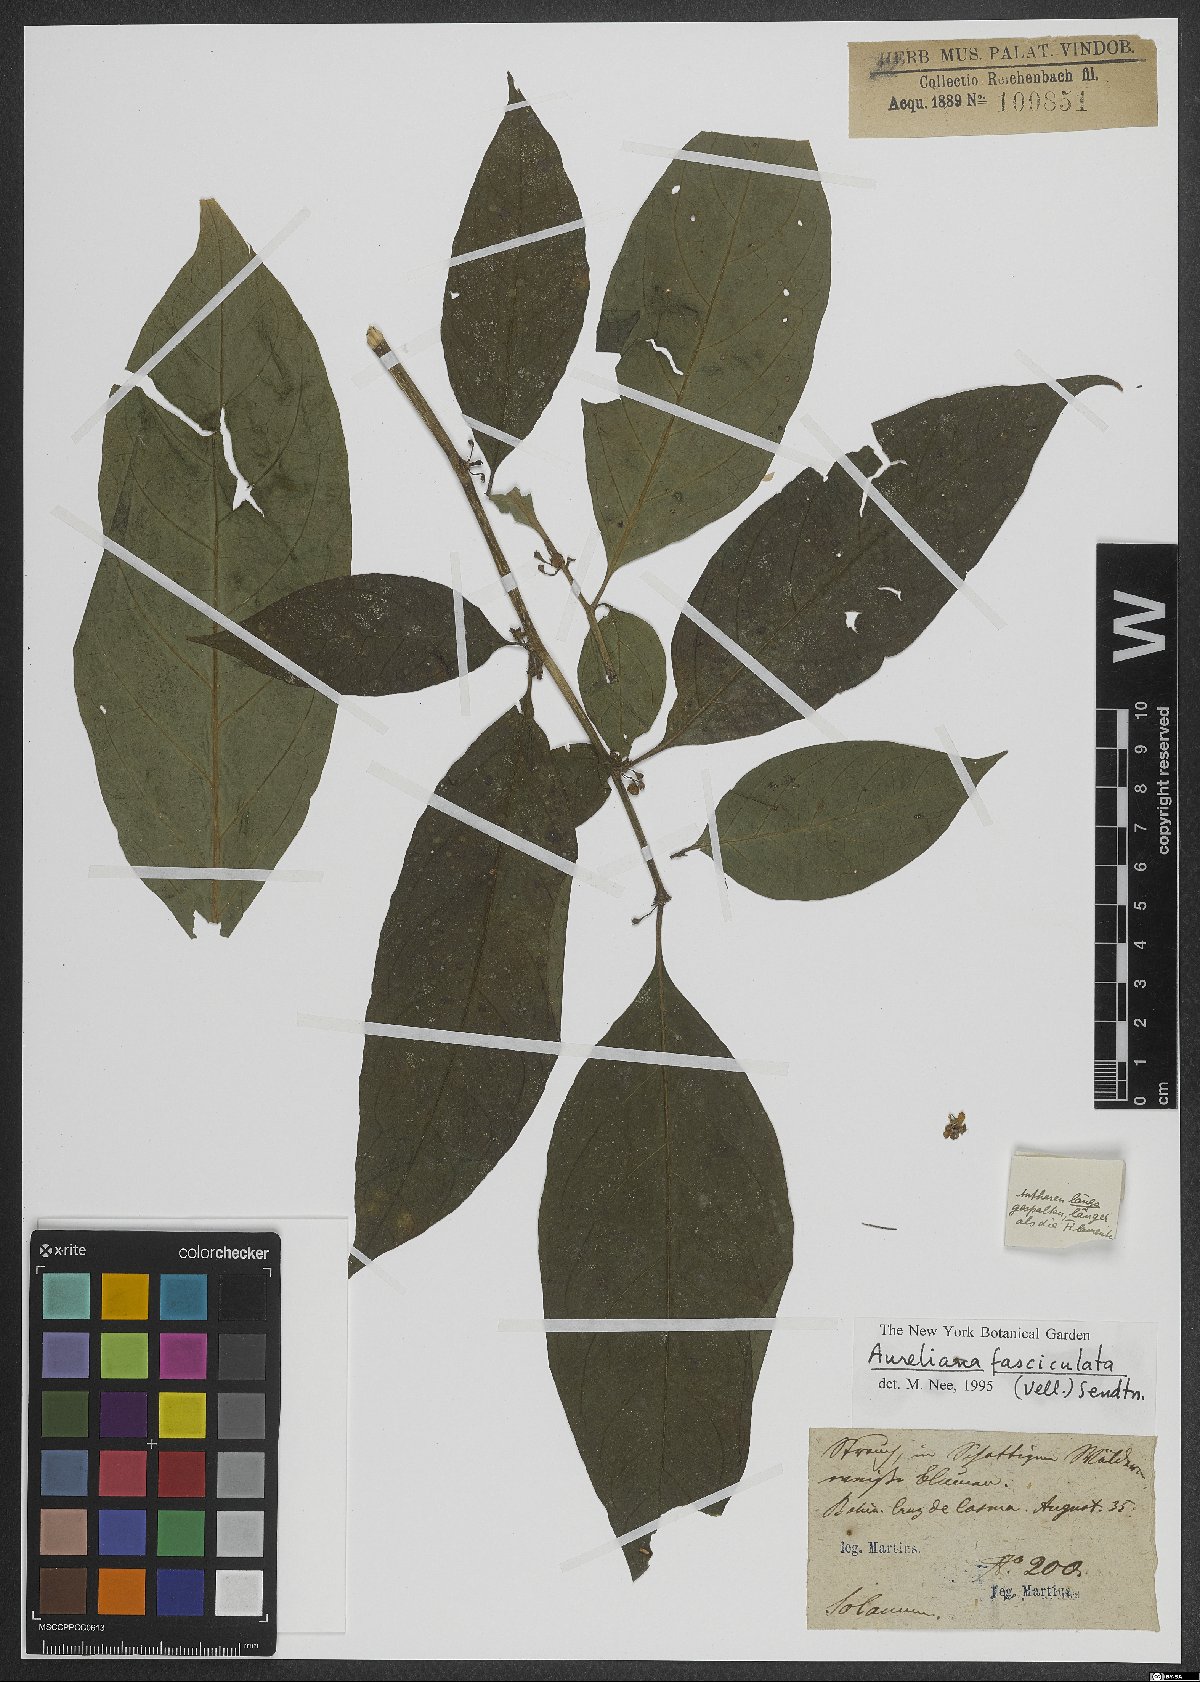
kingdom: Plantae
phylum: Tracheophyta
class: Magnoliopsida
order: Solanales
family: Solanaceae
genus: Athenaea
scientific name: Athenaea fasciculata
